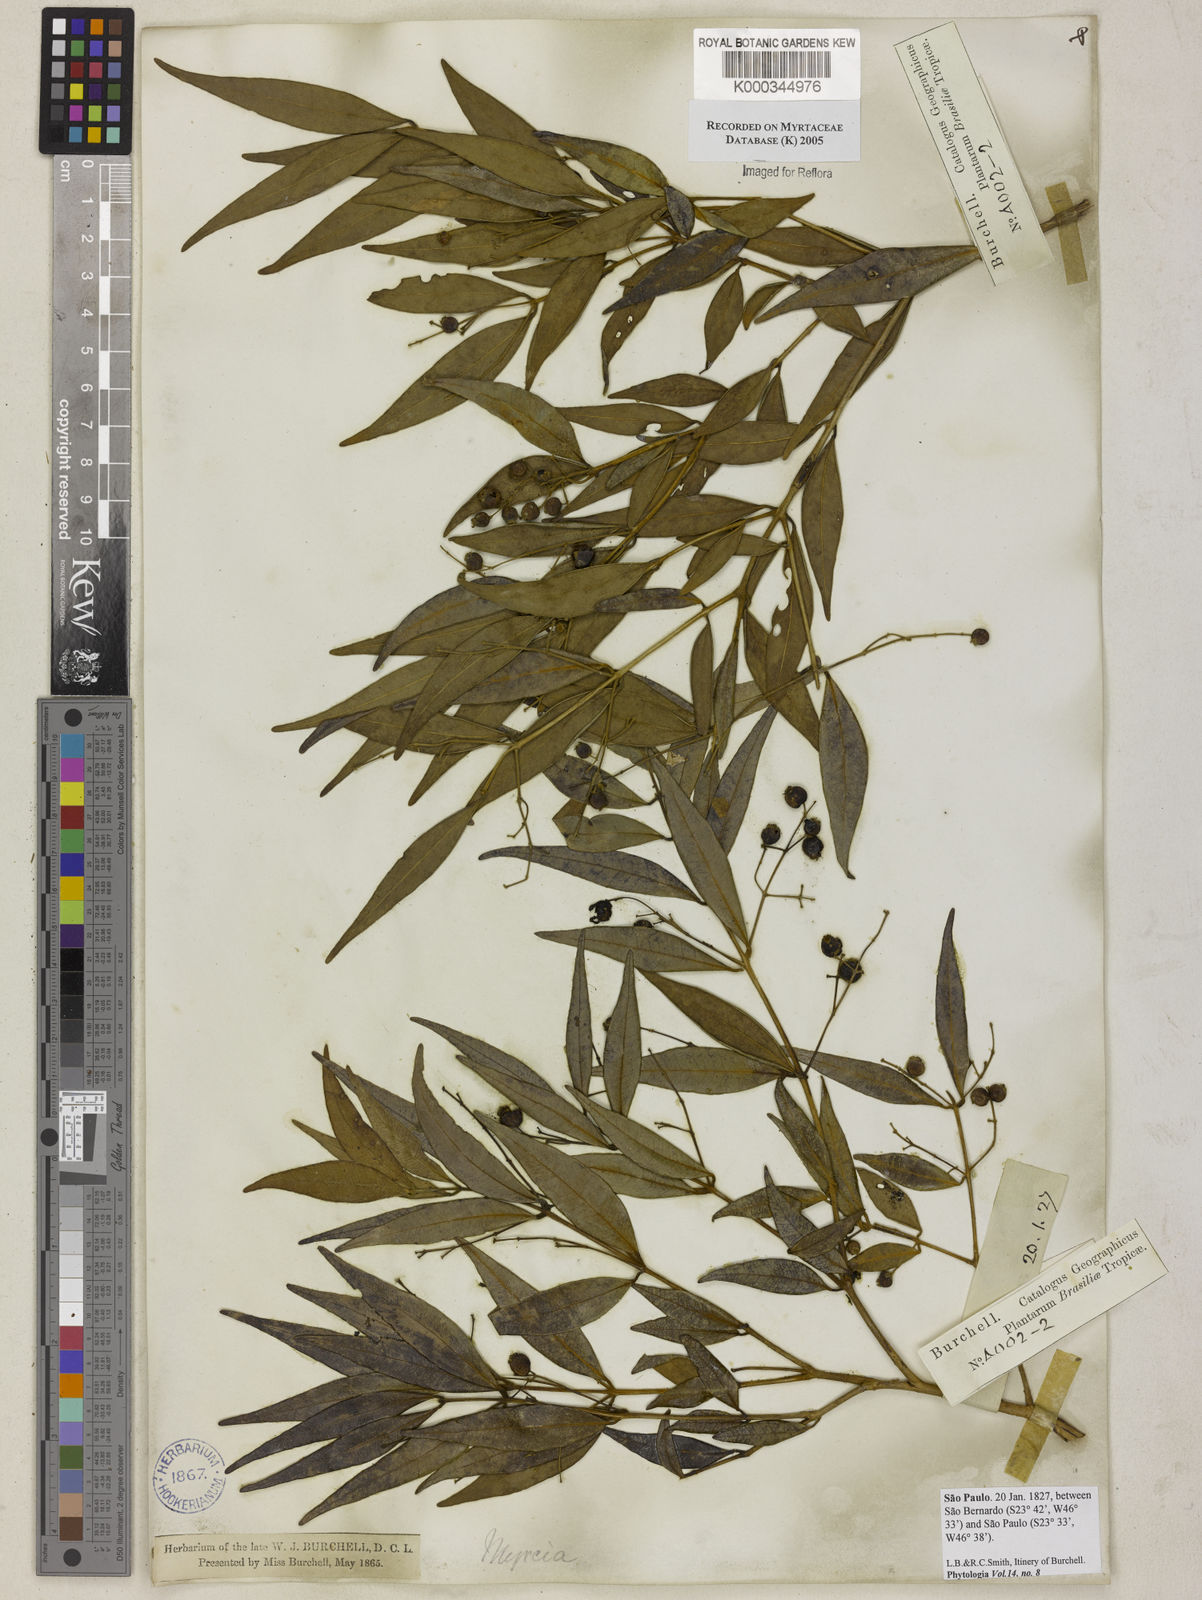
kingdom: Plantae
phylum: Tracheophyta
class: Magnoliopsida
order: Myrtales
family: Myrtaceae
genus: Myrcia
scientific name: Myrcia
